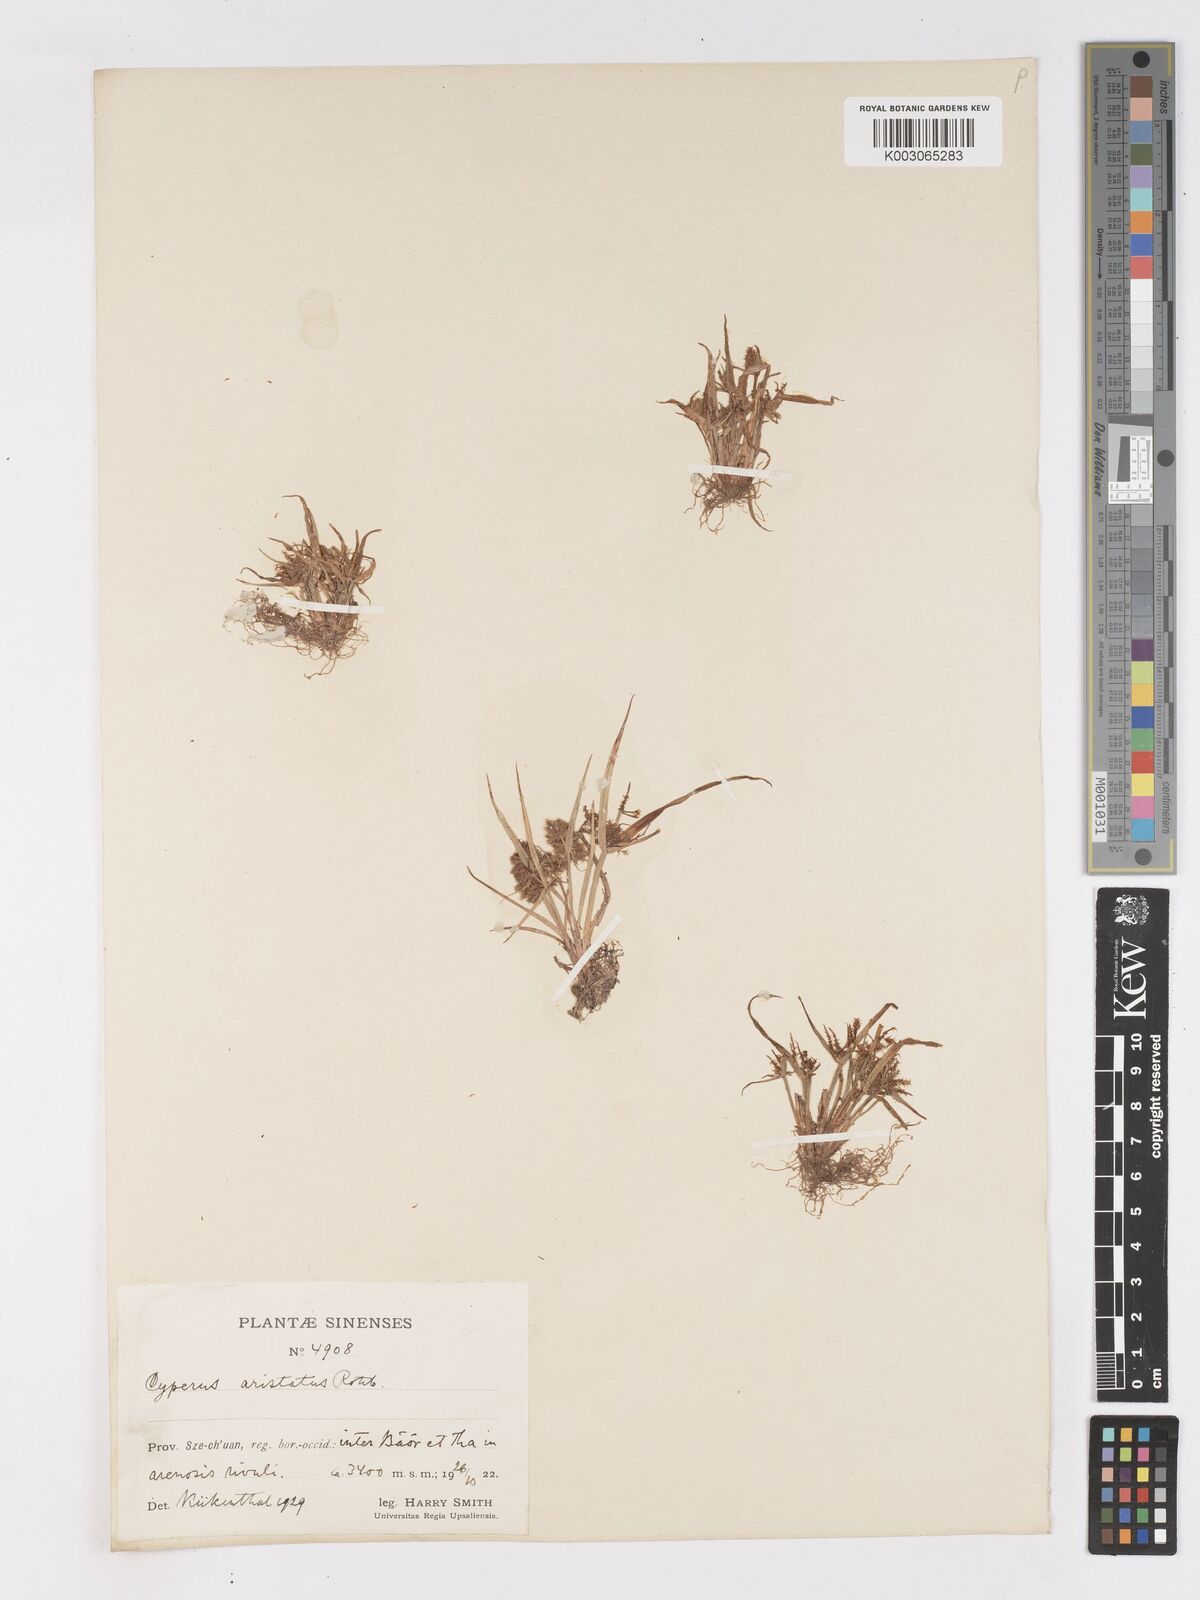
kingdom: Plantae
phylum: Tracheophyta
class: Liliopsida
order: Poales
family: Cyperaceae
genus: Cyperus
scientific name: Cyperus squarrosus
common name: Awned cyperus
